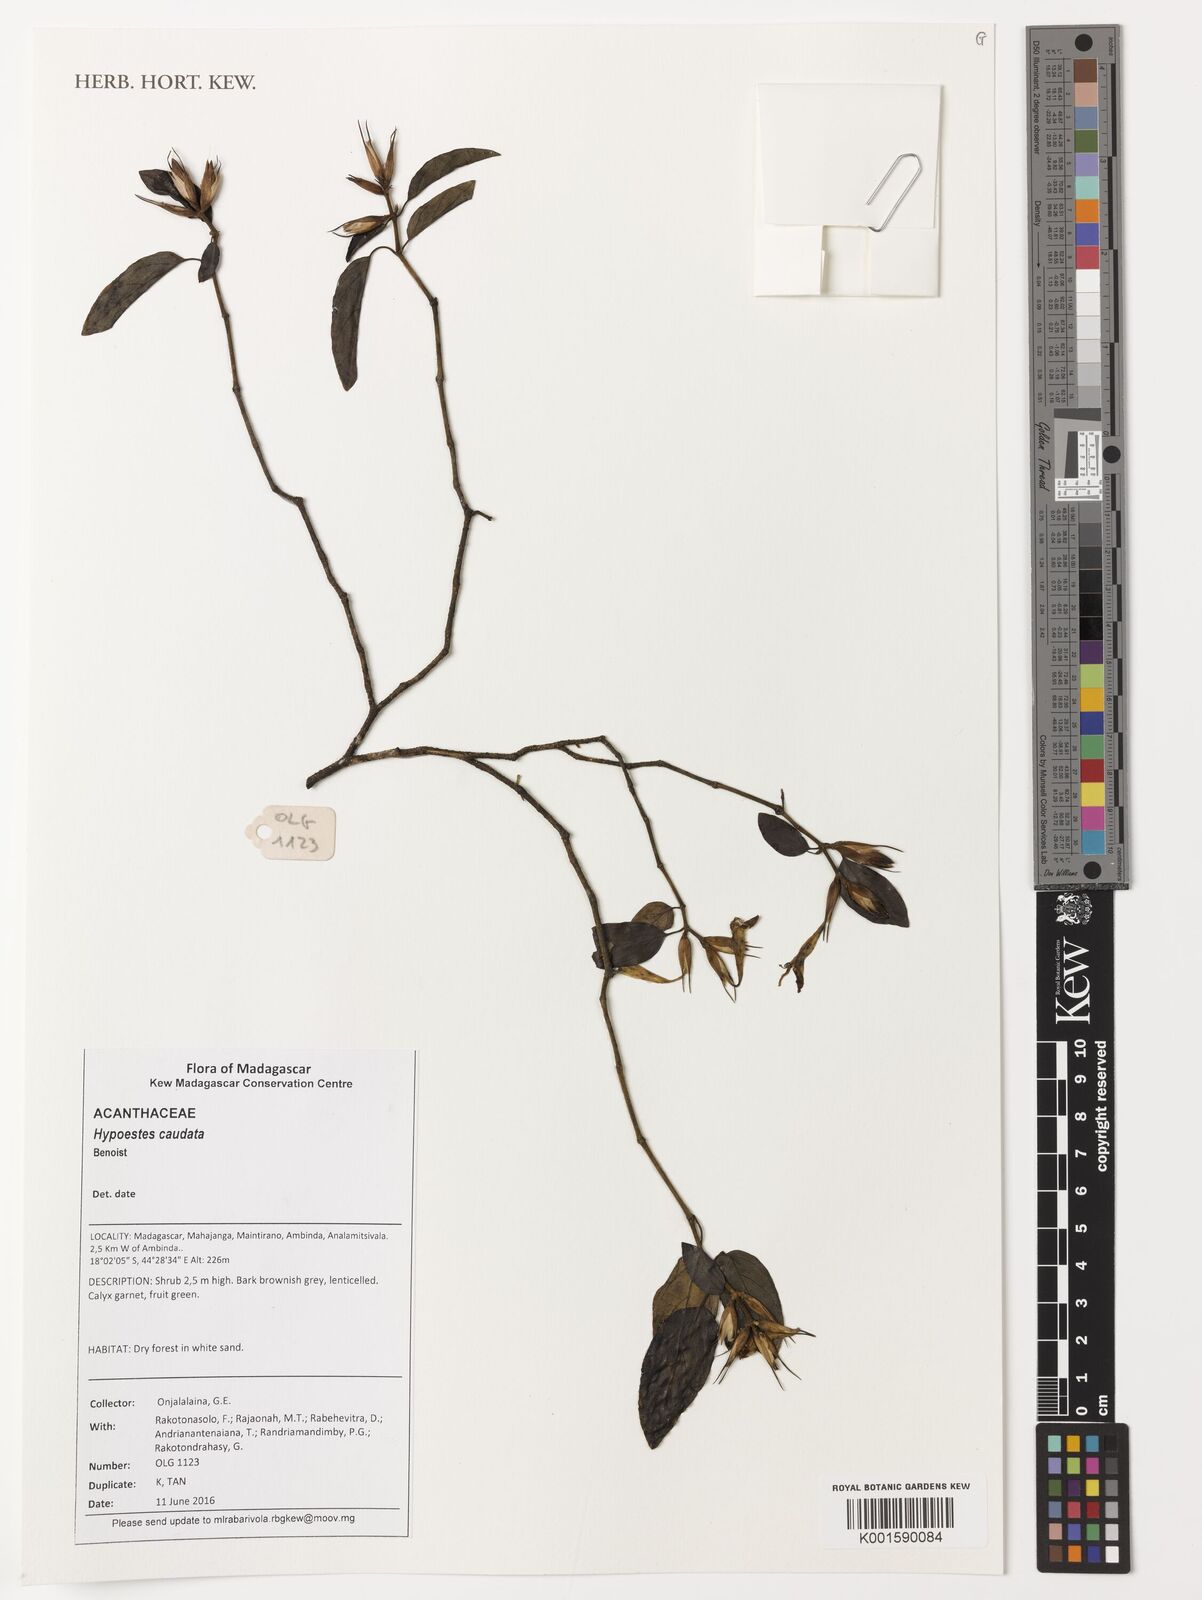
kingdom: Plantae
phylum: Tracheophyta
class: Magnoliopsida
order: Lamiales
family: Acanthaceae
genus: Hypoestes
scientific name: Hypoestes caudata
